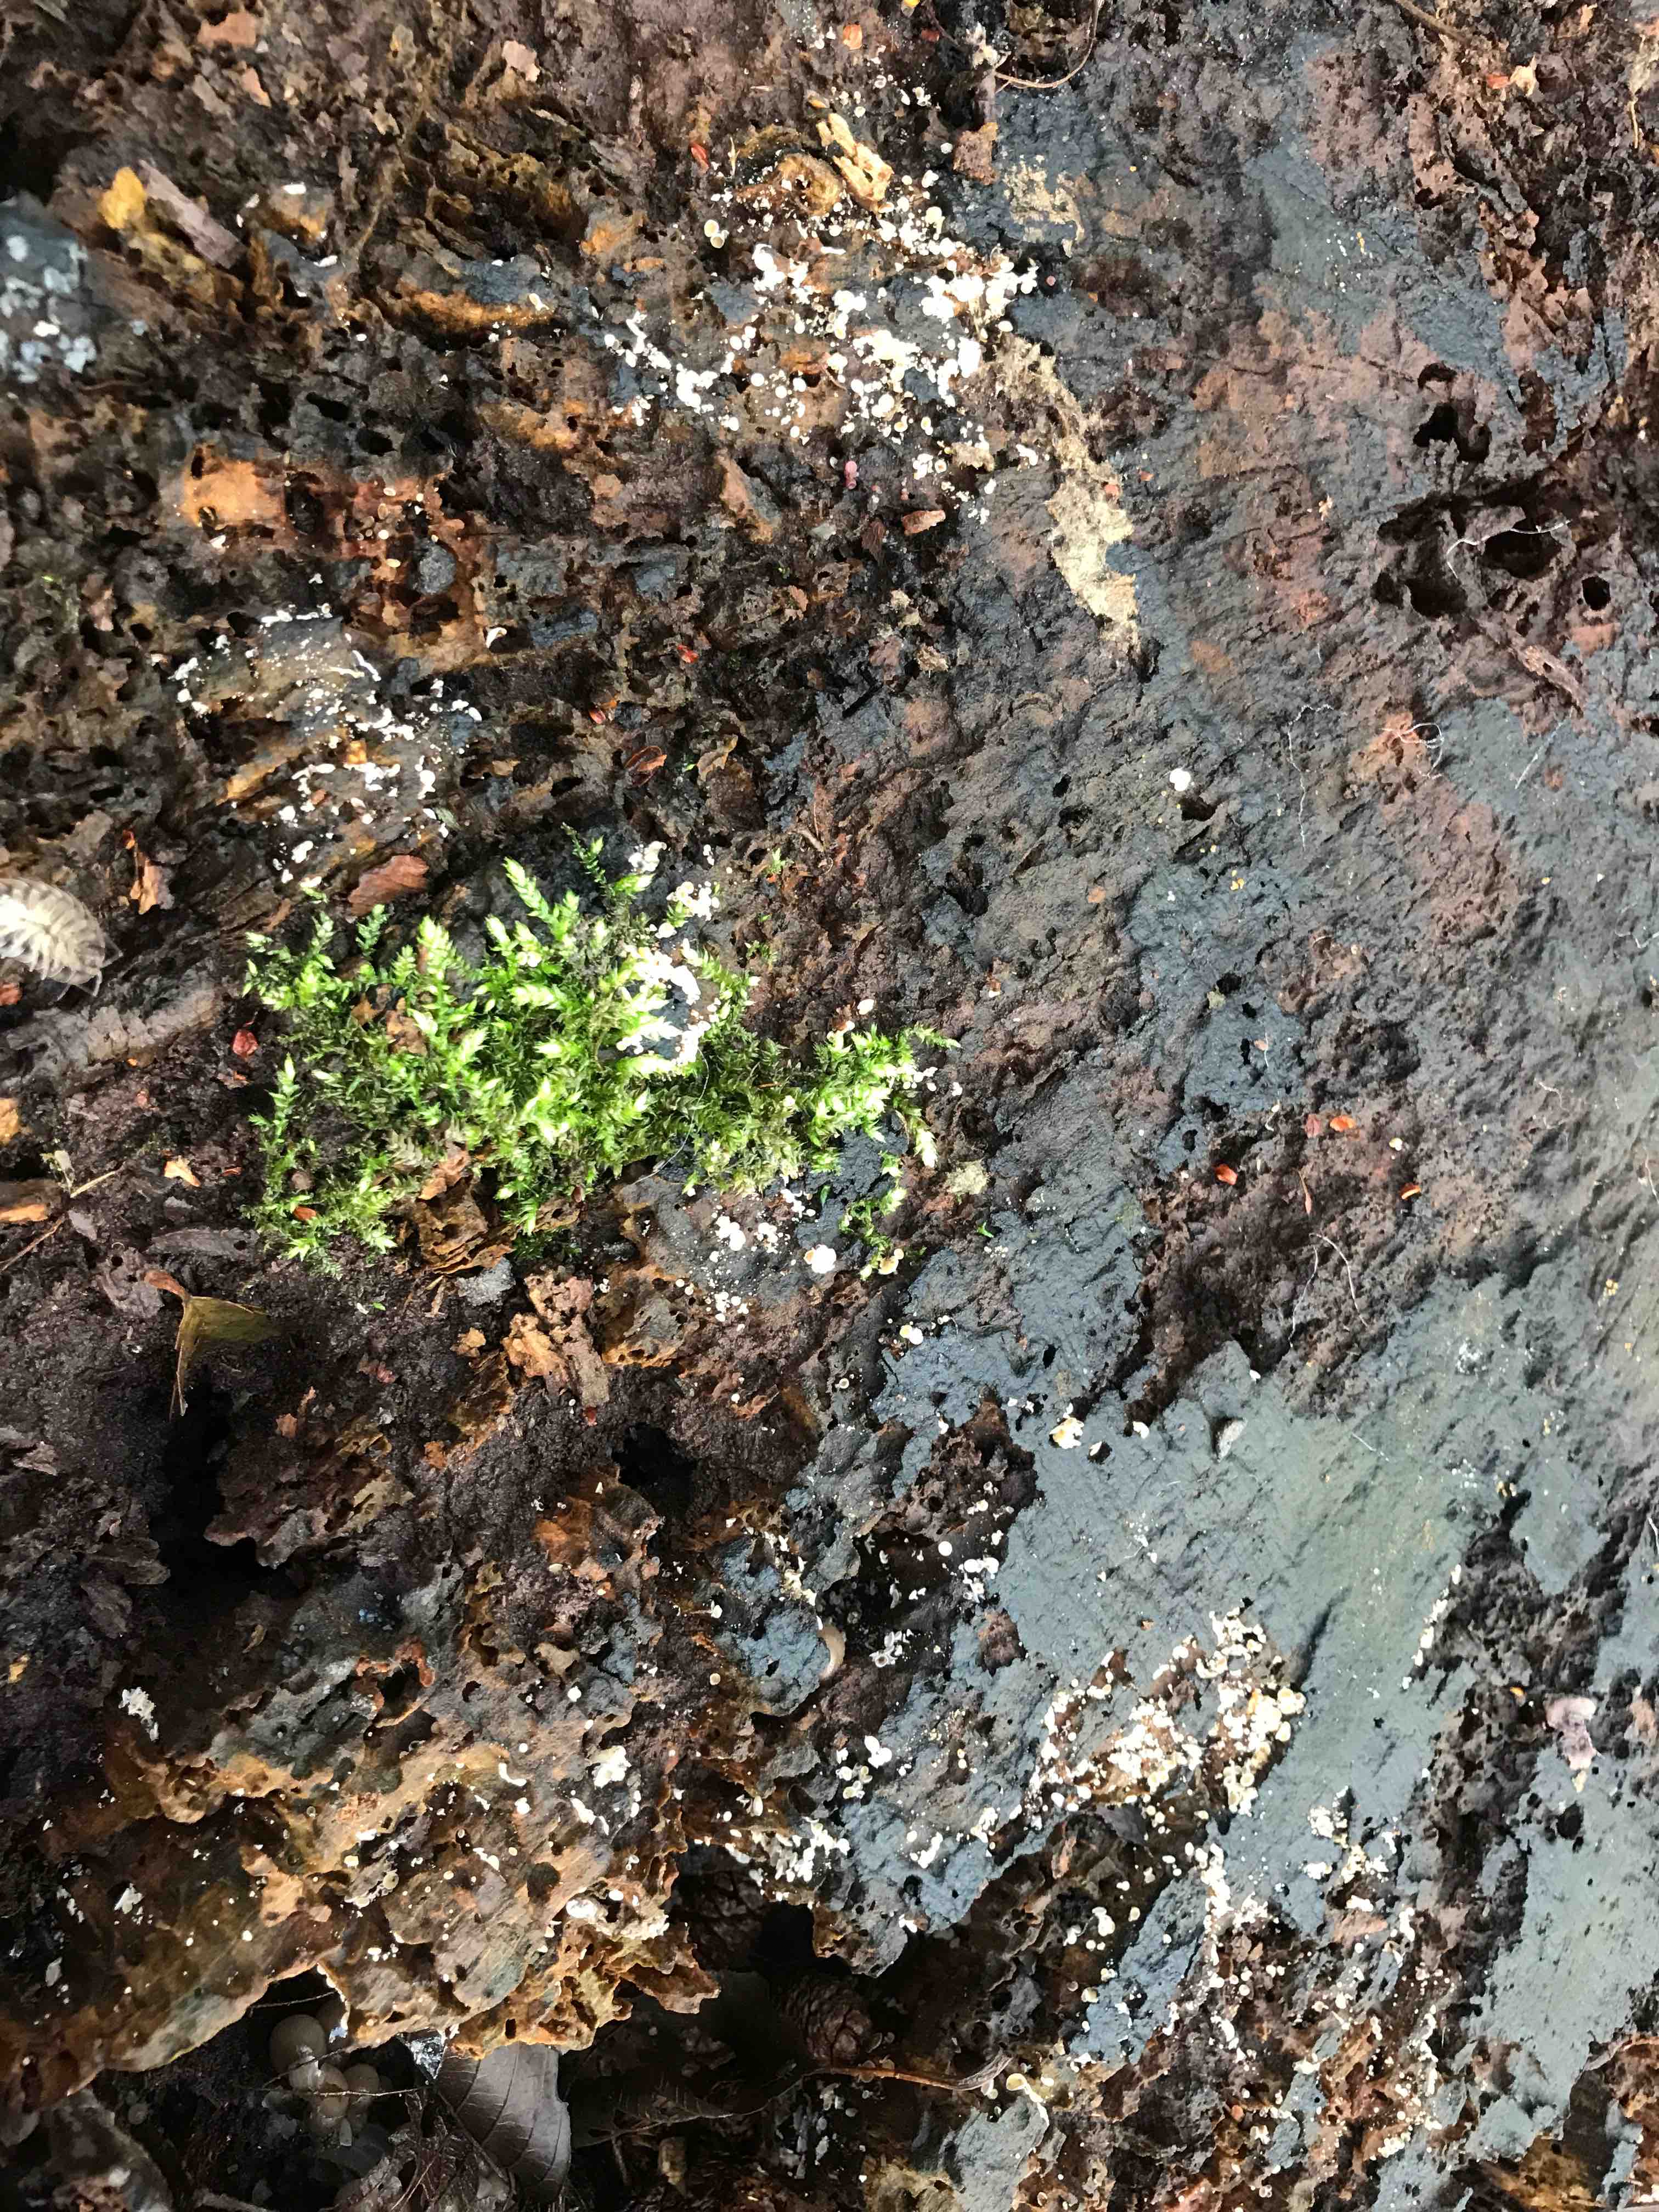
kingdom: Fungi
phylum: Ascomycota
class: Leotiomycetes
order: Helotiales
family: Hyaloscyphaceae
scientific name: Hyaloscyphaceae
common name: frynseskivefamilien
